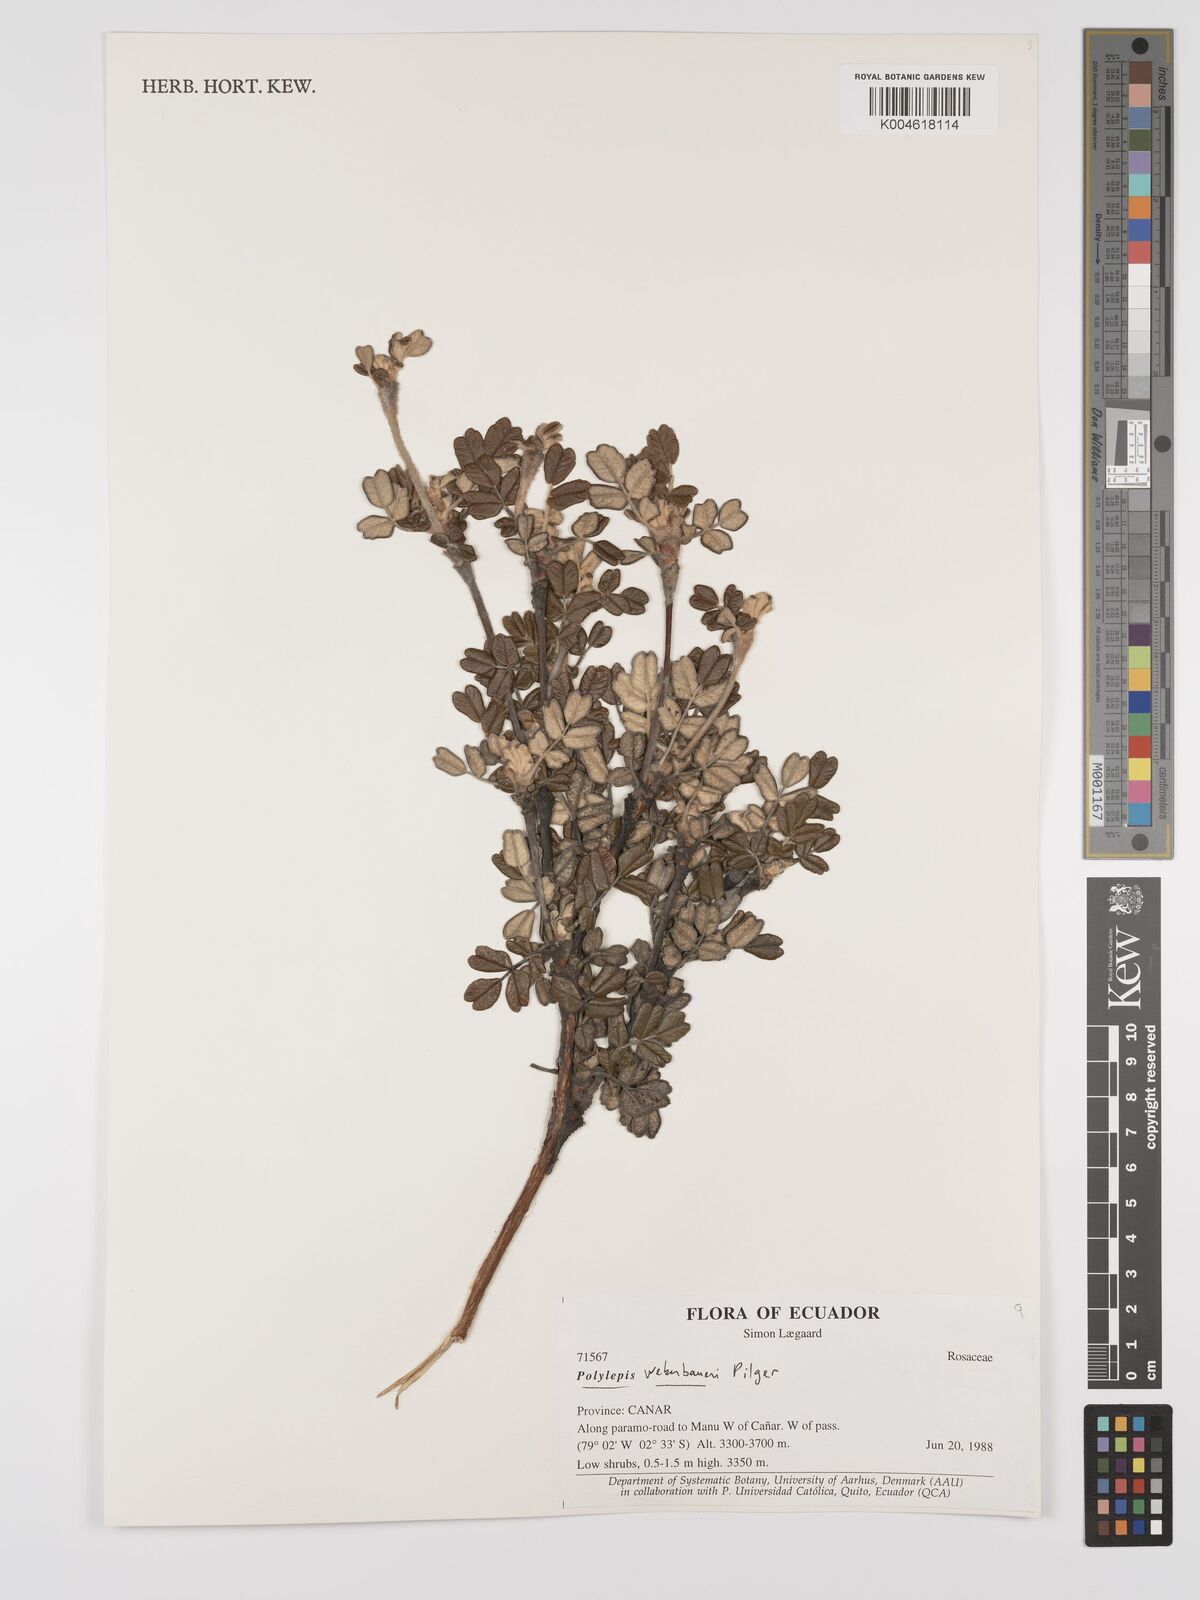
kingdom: Plantae
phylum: Tracheophyta
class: Magnoliopsida
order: Rosales
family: Rosaceae
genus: Polylepis
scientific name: Polylepis weberbaueri
